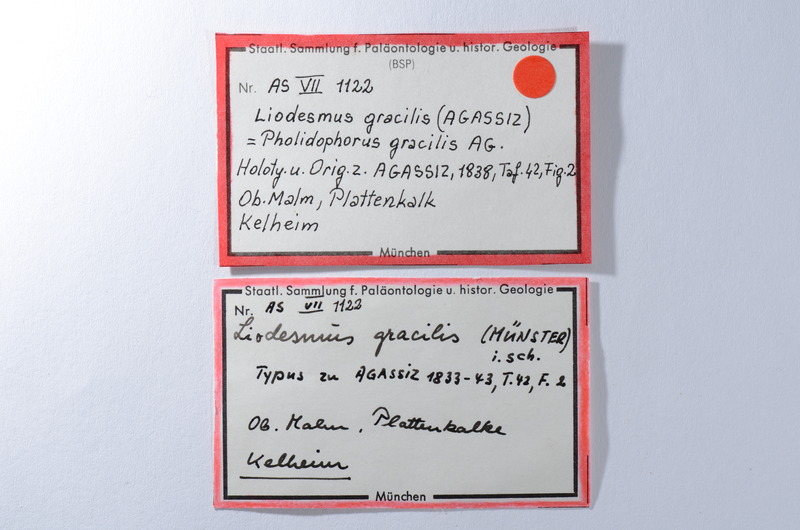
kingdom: Animalia
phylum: Chordata
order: Amiiformes
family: Liodesmidae
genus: Liodesmus
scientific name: Liodesmus gracilis
